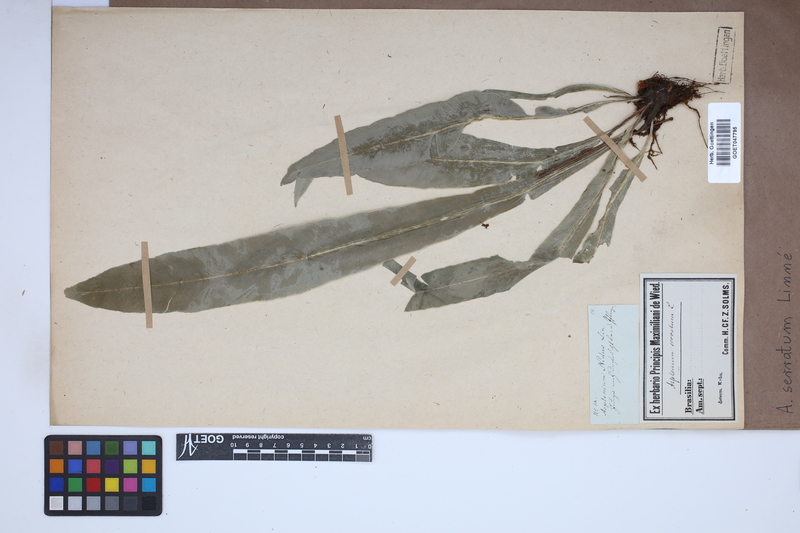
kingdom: Plantae
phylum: Tracheophyta
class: Polypodiopsida
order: Polypodiales
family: Aspleniaceae
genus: Asplenium
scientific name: Asplenium serratum
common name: Wild birdnest fern
